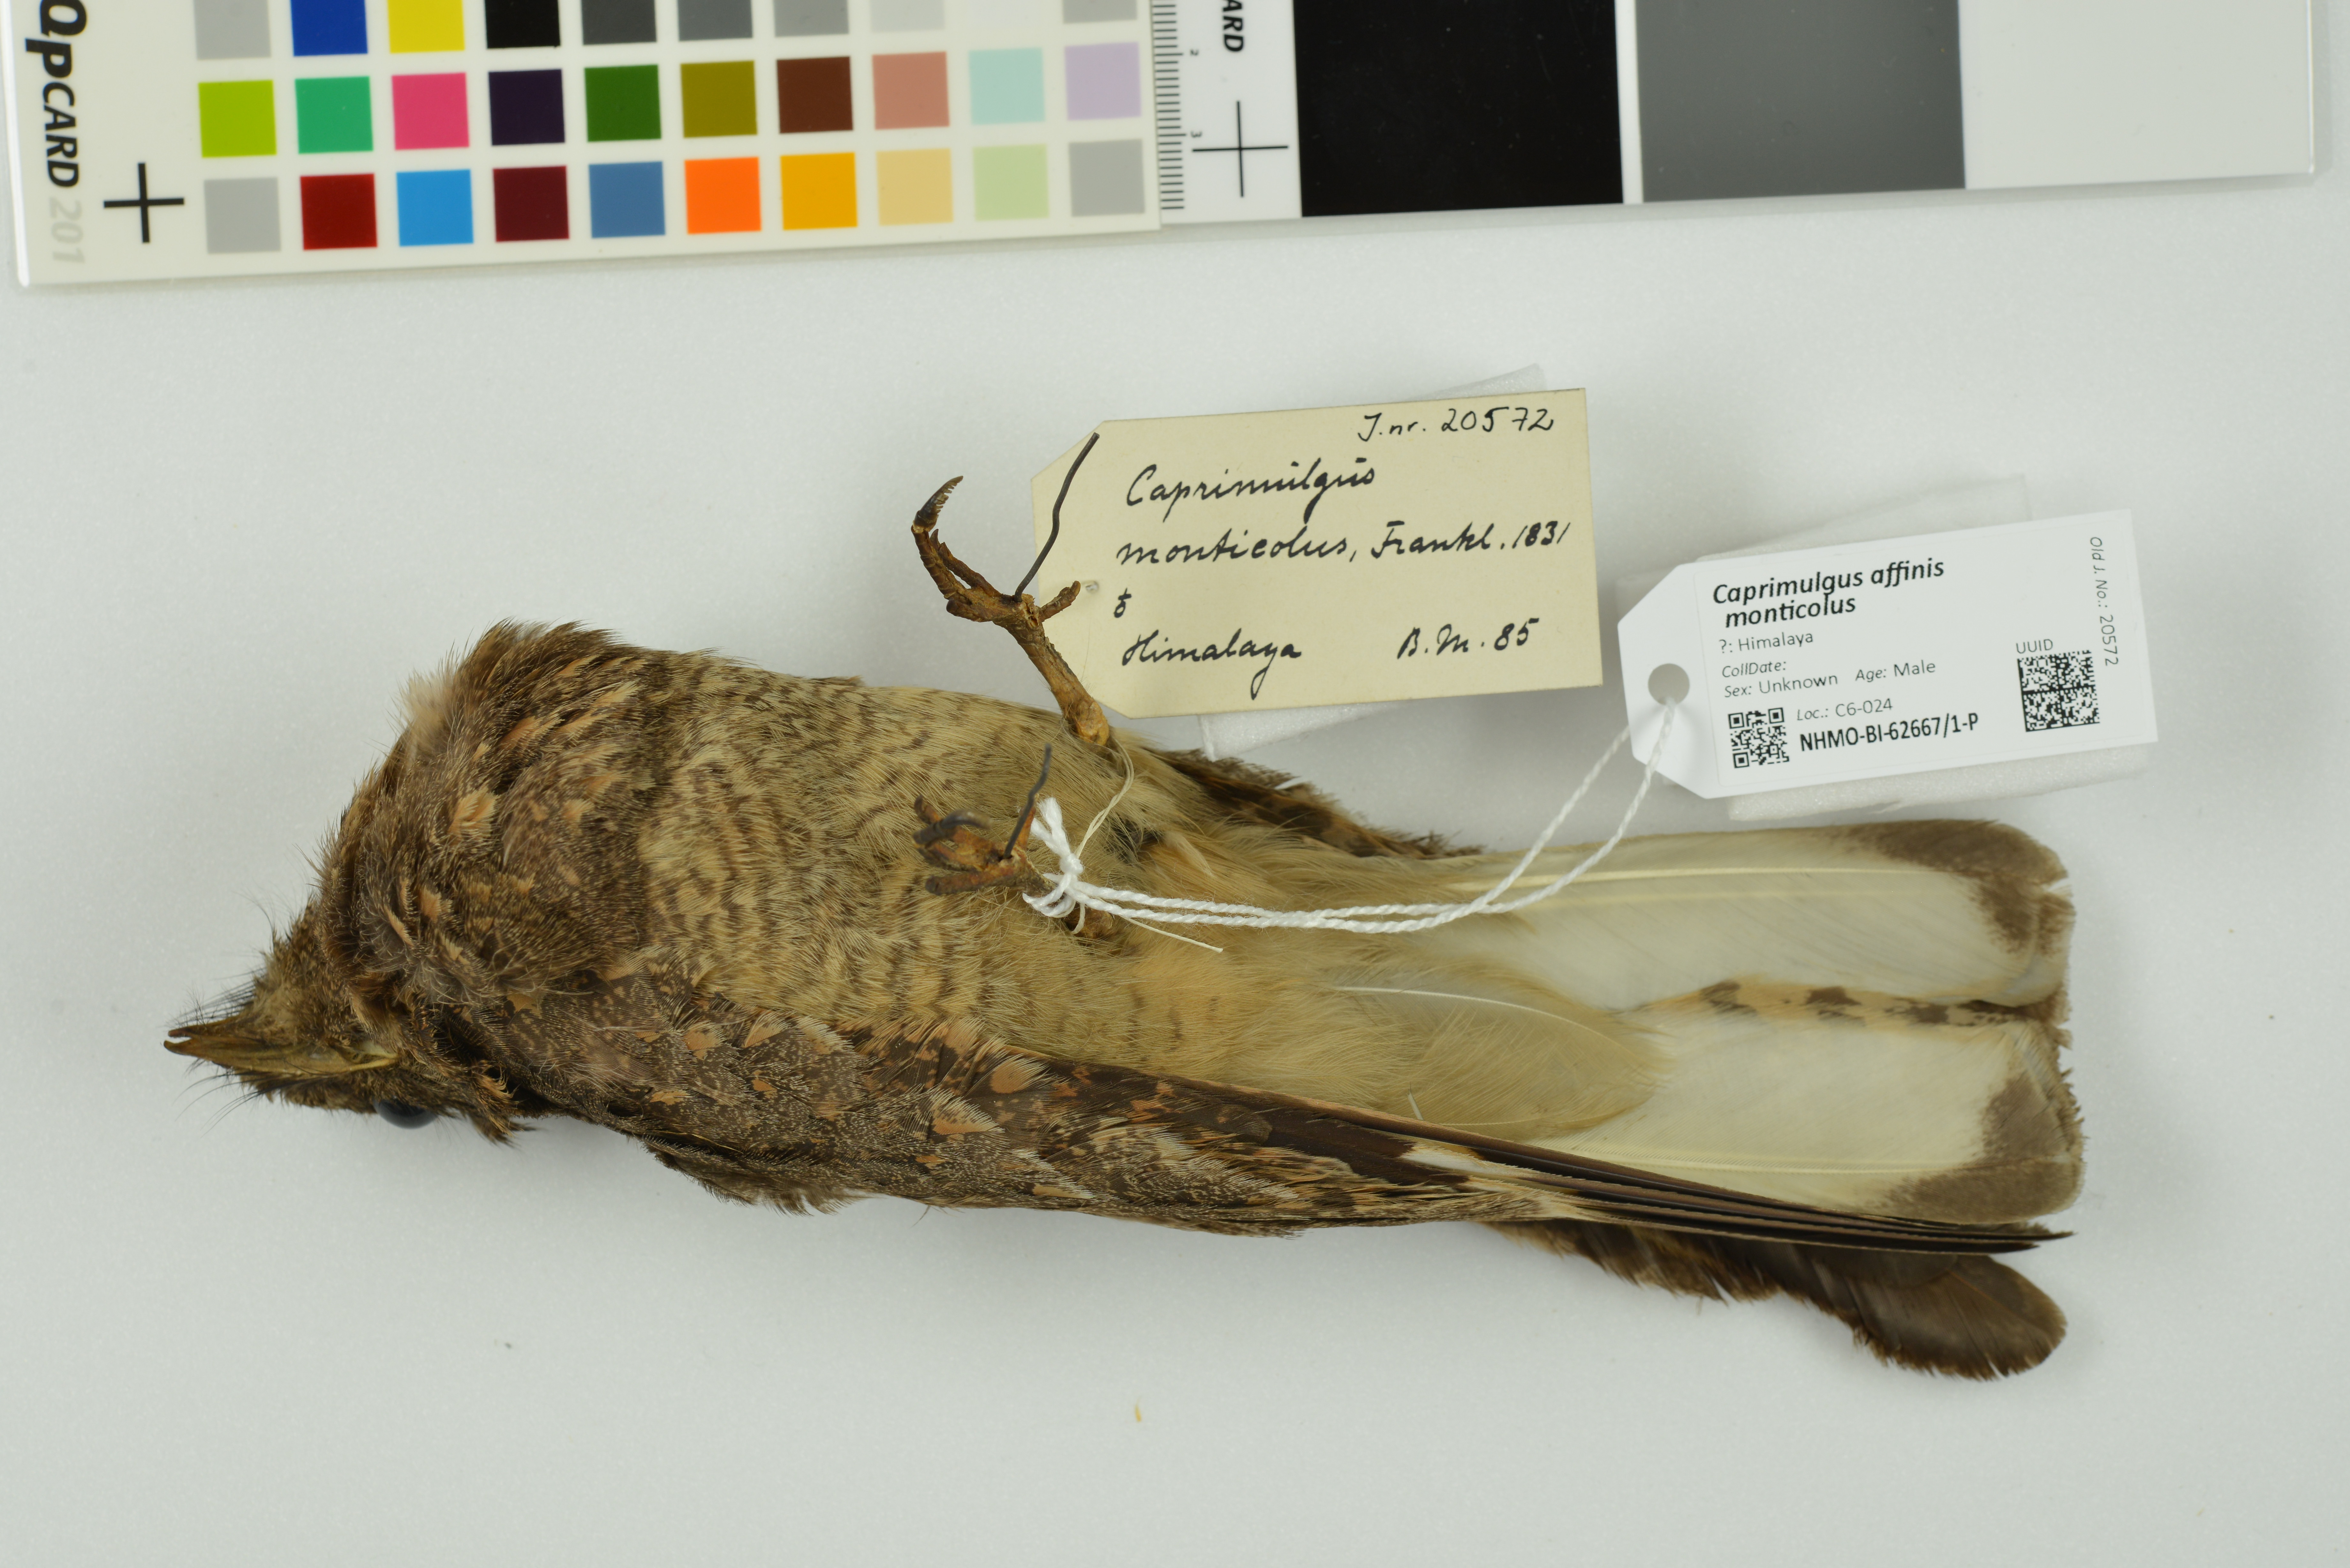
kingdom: Animalia
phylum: Chordata
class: Aves
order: Caprimulgiformes
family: Caprimulgidae
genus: Caprimulgus
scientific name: Caprimulgus affinis
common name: Savanna nightjar
